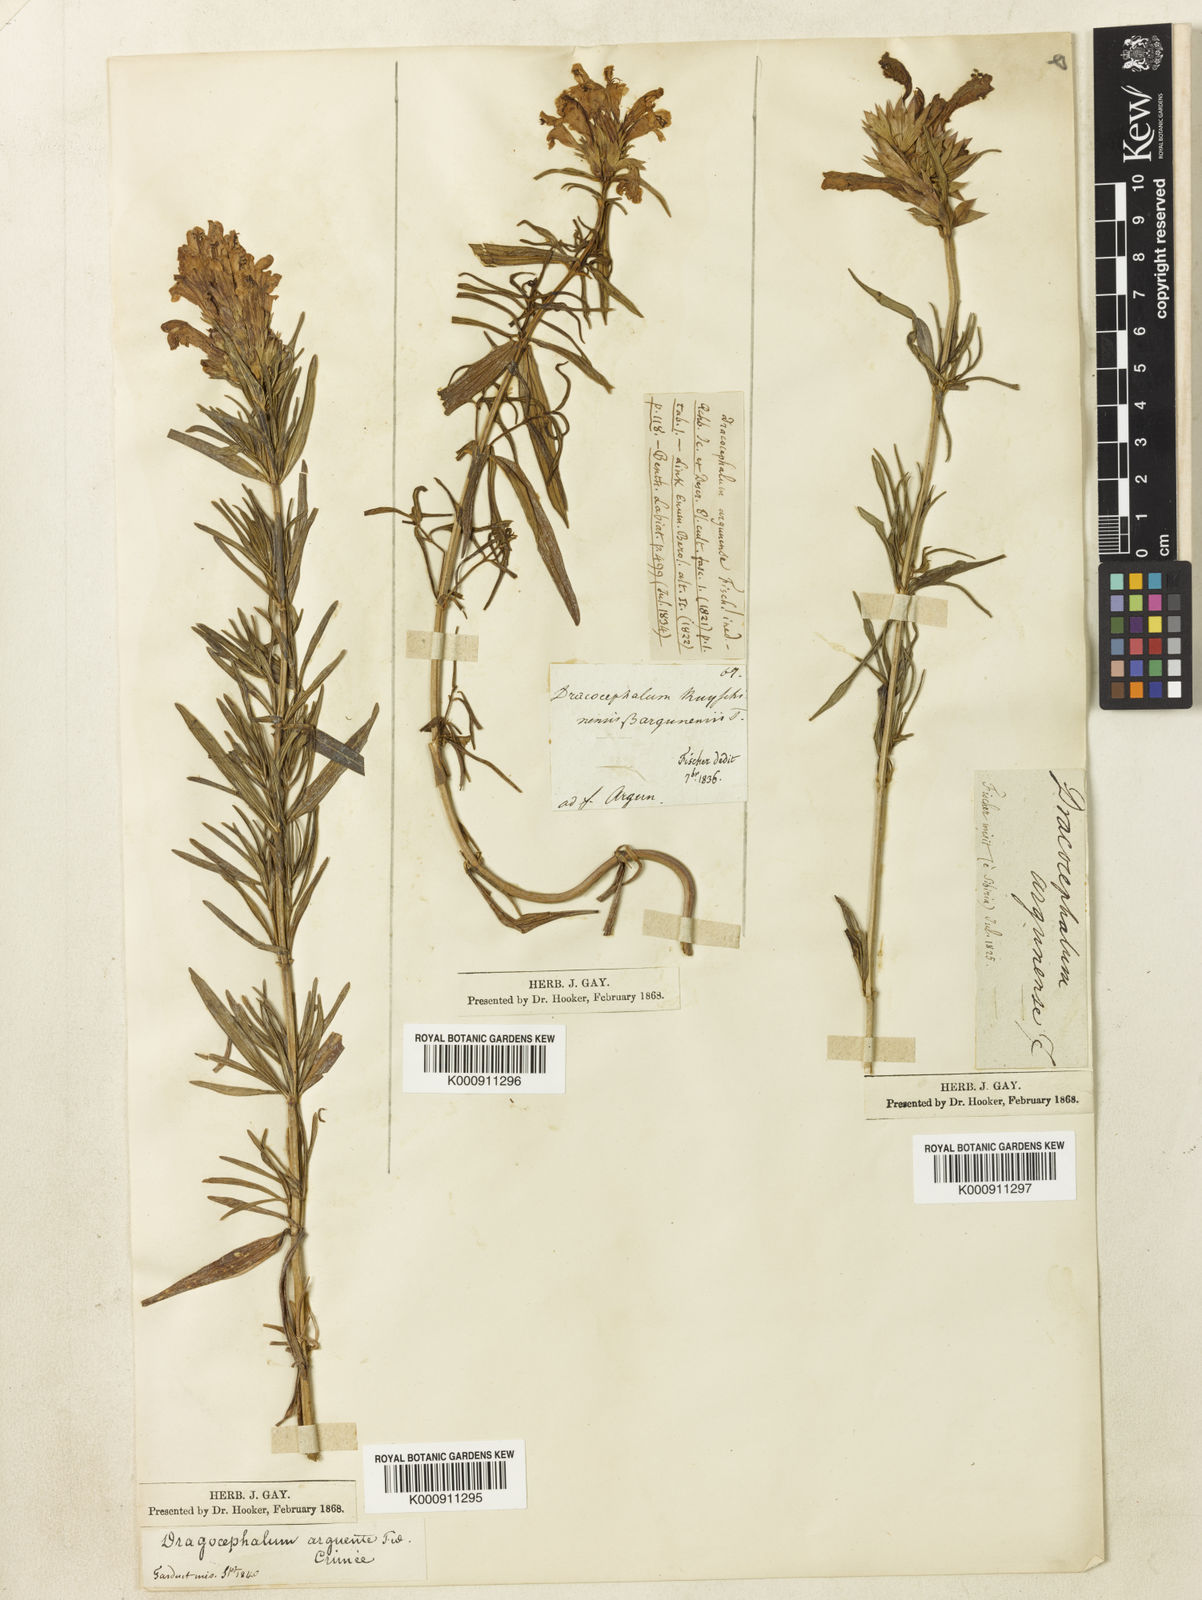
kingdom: Plantae
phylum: Tracheophyta
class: Magnoliopsida
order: Lamiales
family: Lamiaceae
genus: Dracocephalum
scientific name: Dracocephalum argunense
